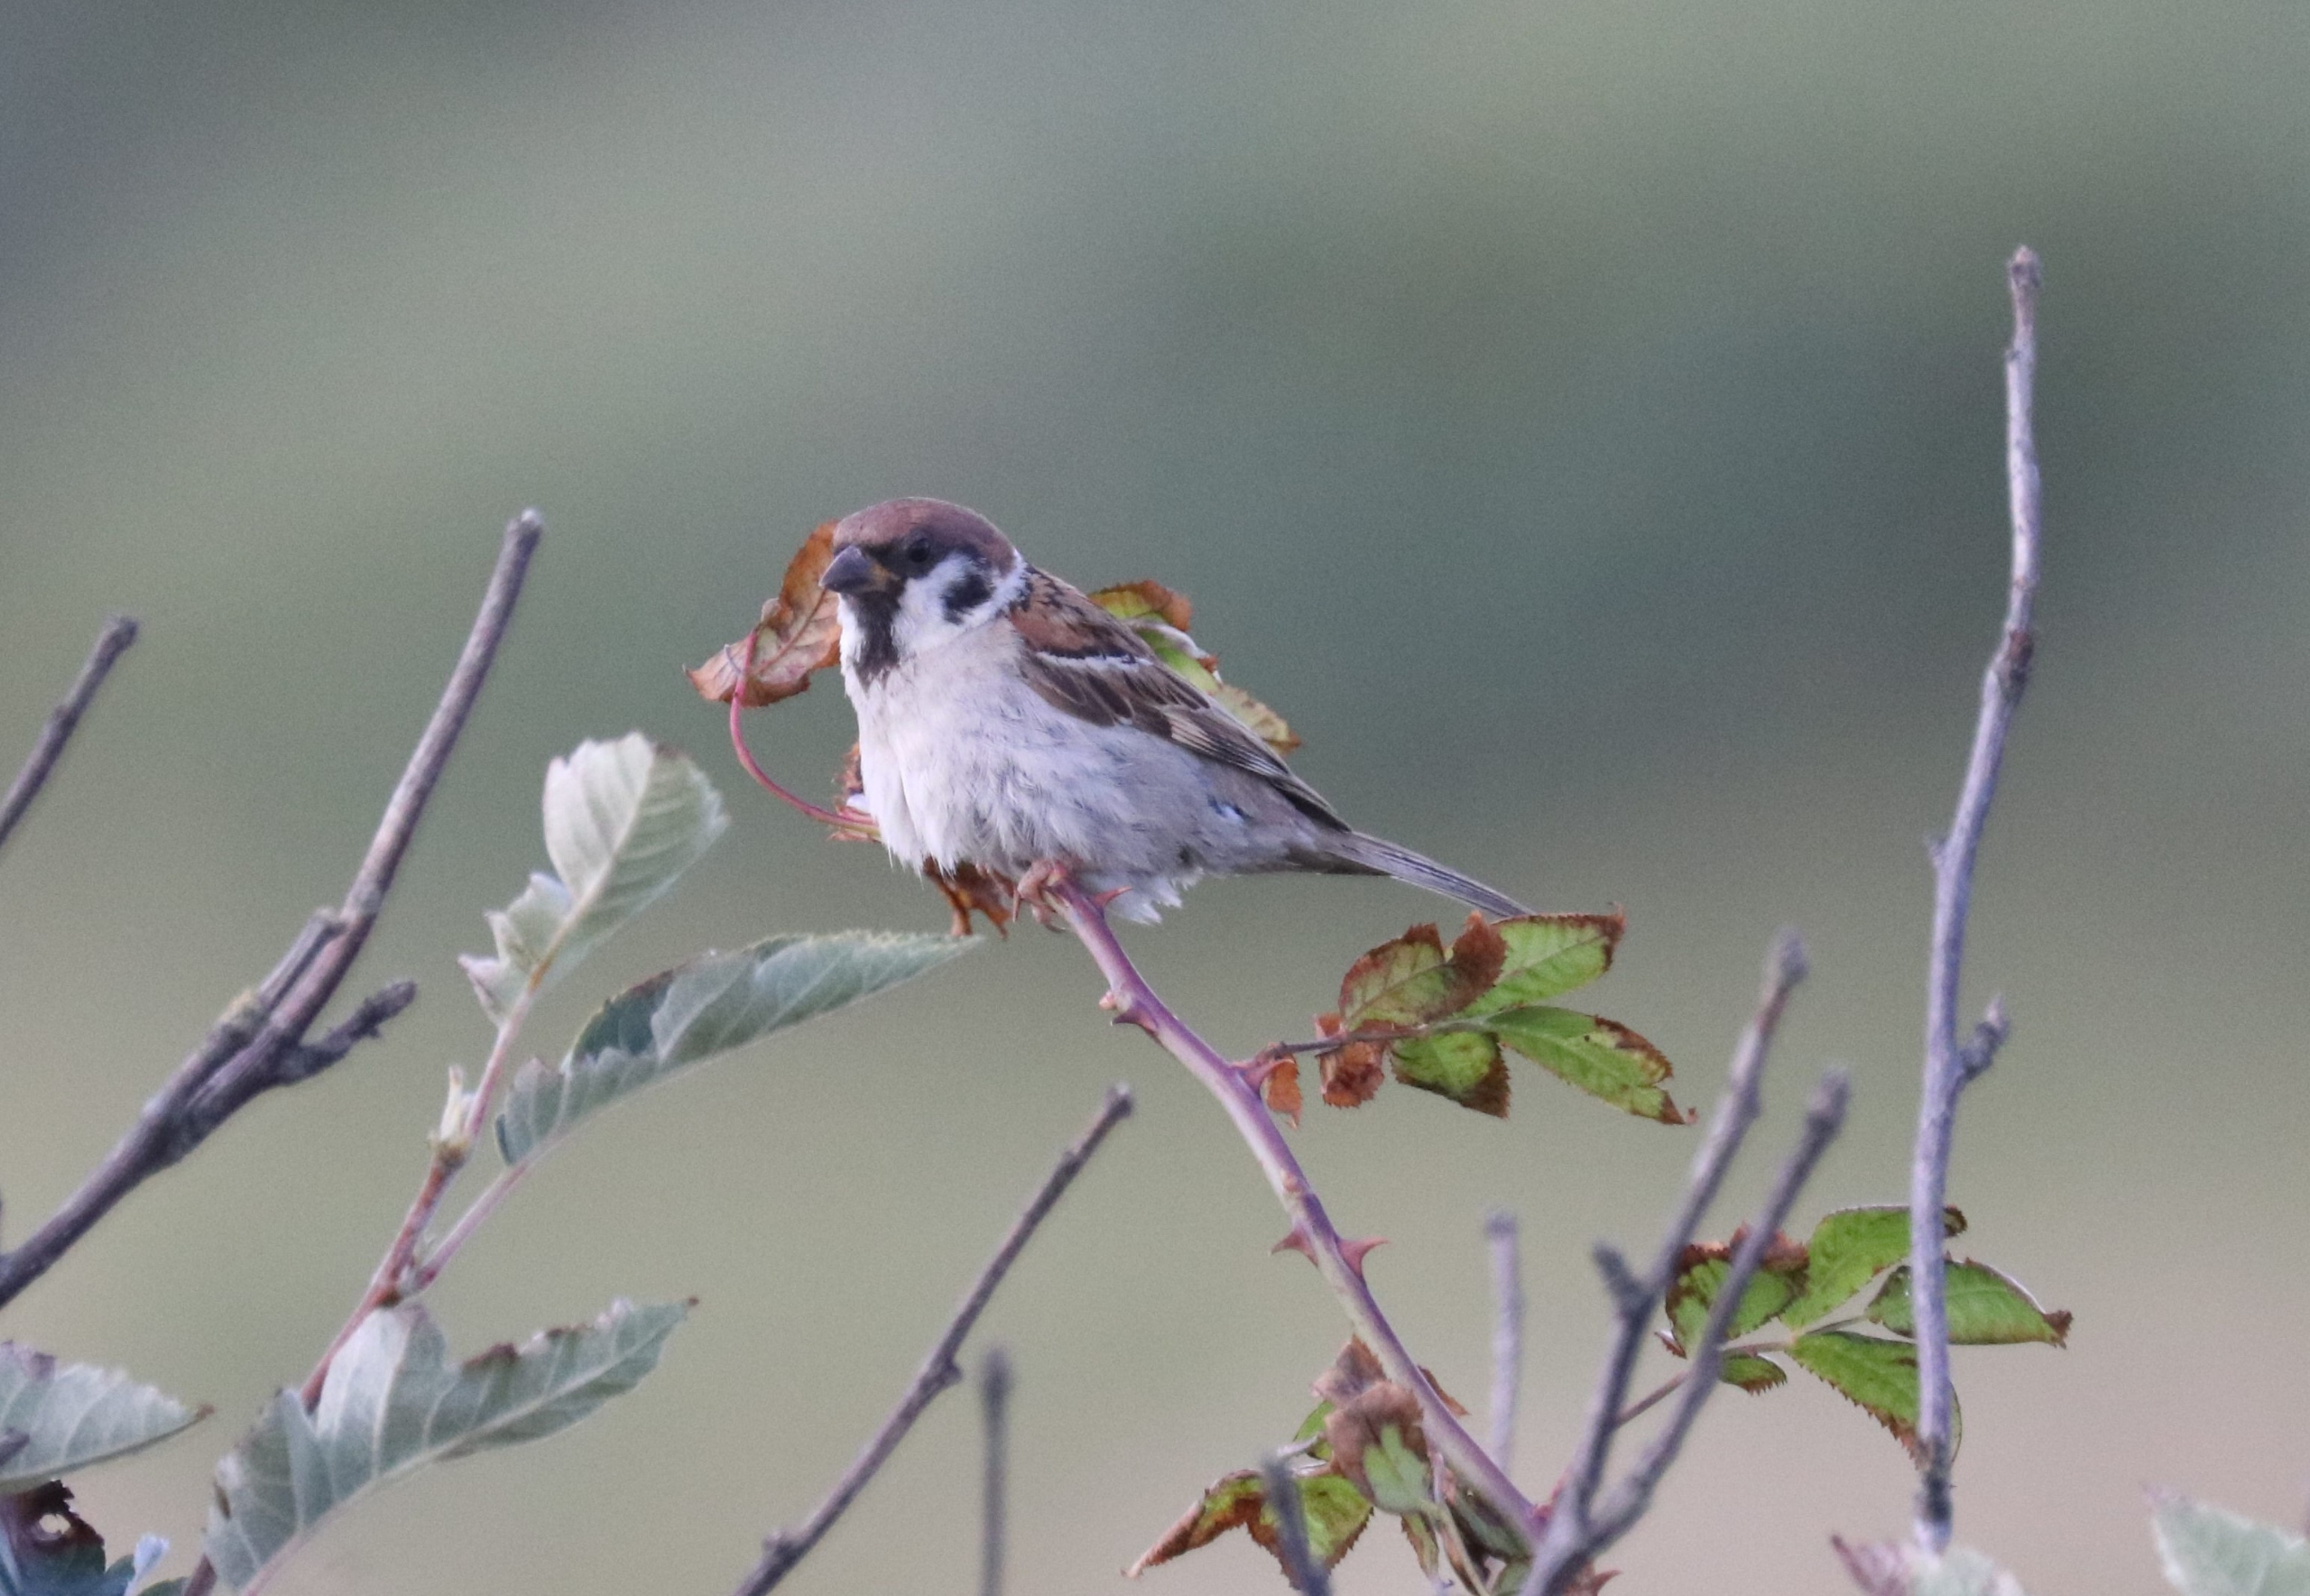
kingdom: Animalia
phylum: Chordata
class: Aves
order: Passeriformes
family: Passeridae
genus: Passer
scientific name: Passer montanus
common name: Skovspurv
